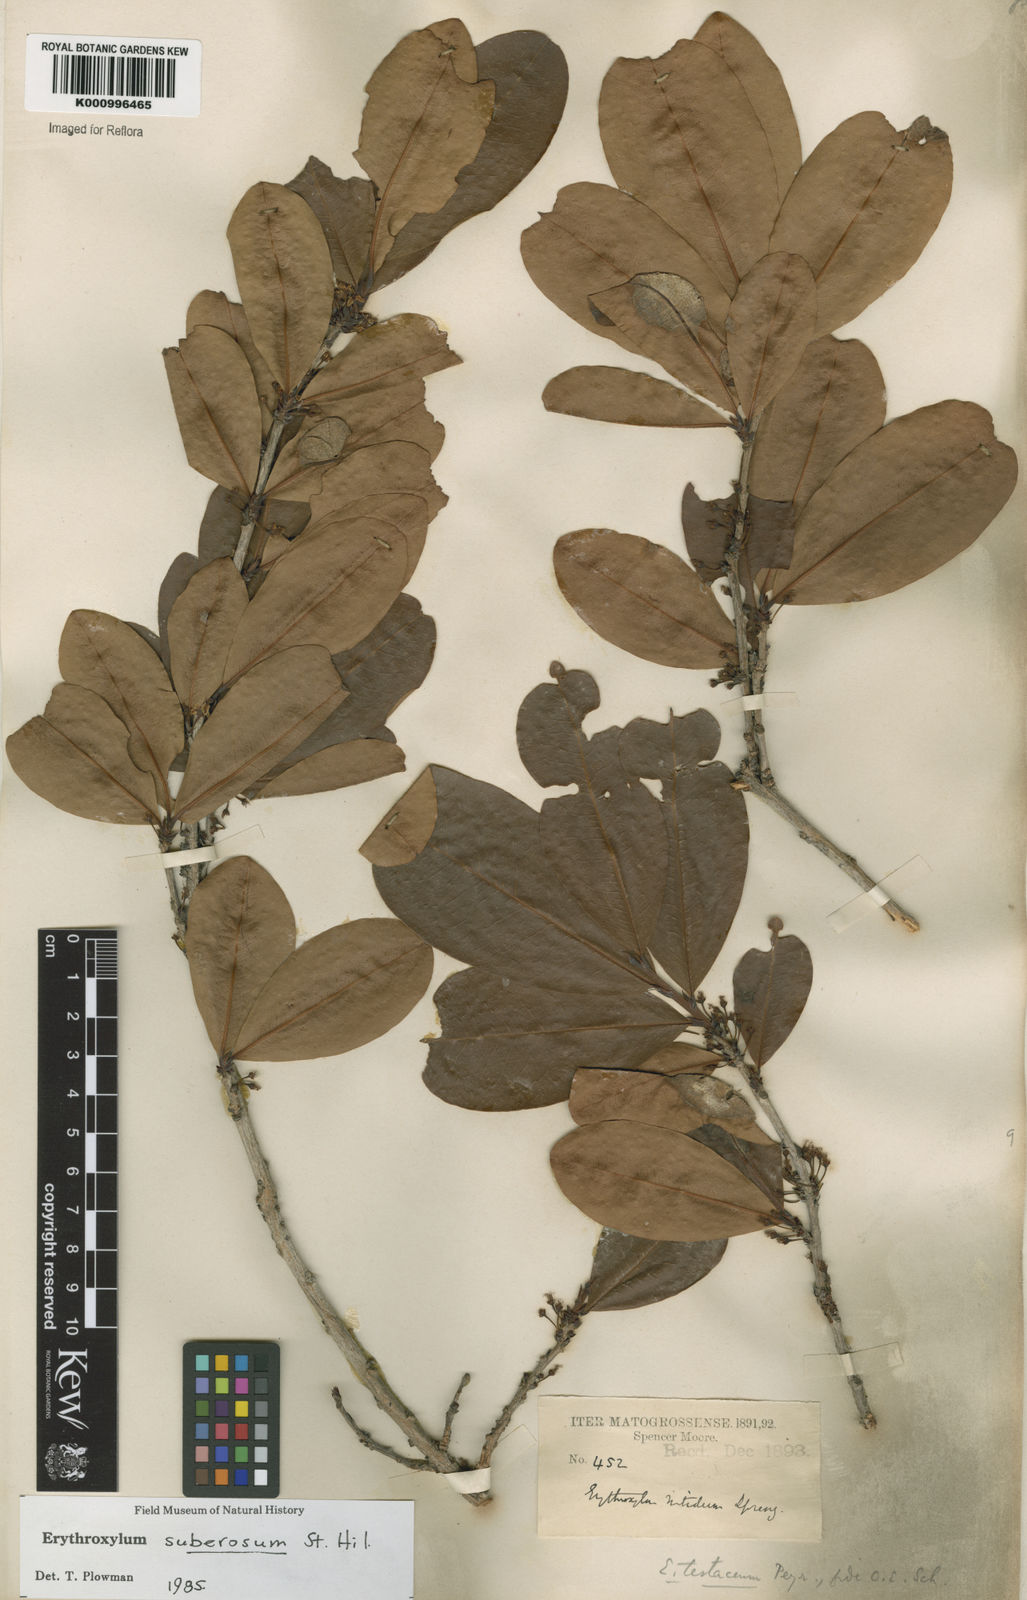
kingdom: Plantae
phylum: Tracheophyta
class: Magnoliopsida
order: Malpighiales
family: Erythroxylaceae
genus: Erythroxylum
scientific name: Erythroxylum suberosum
